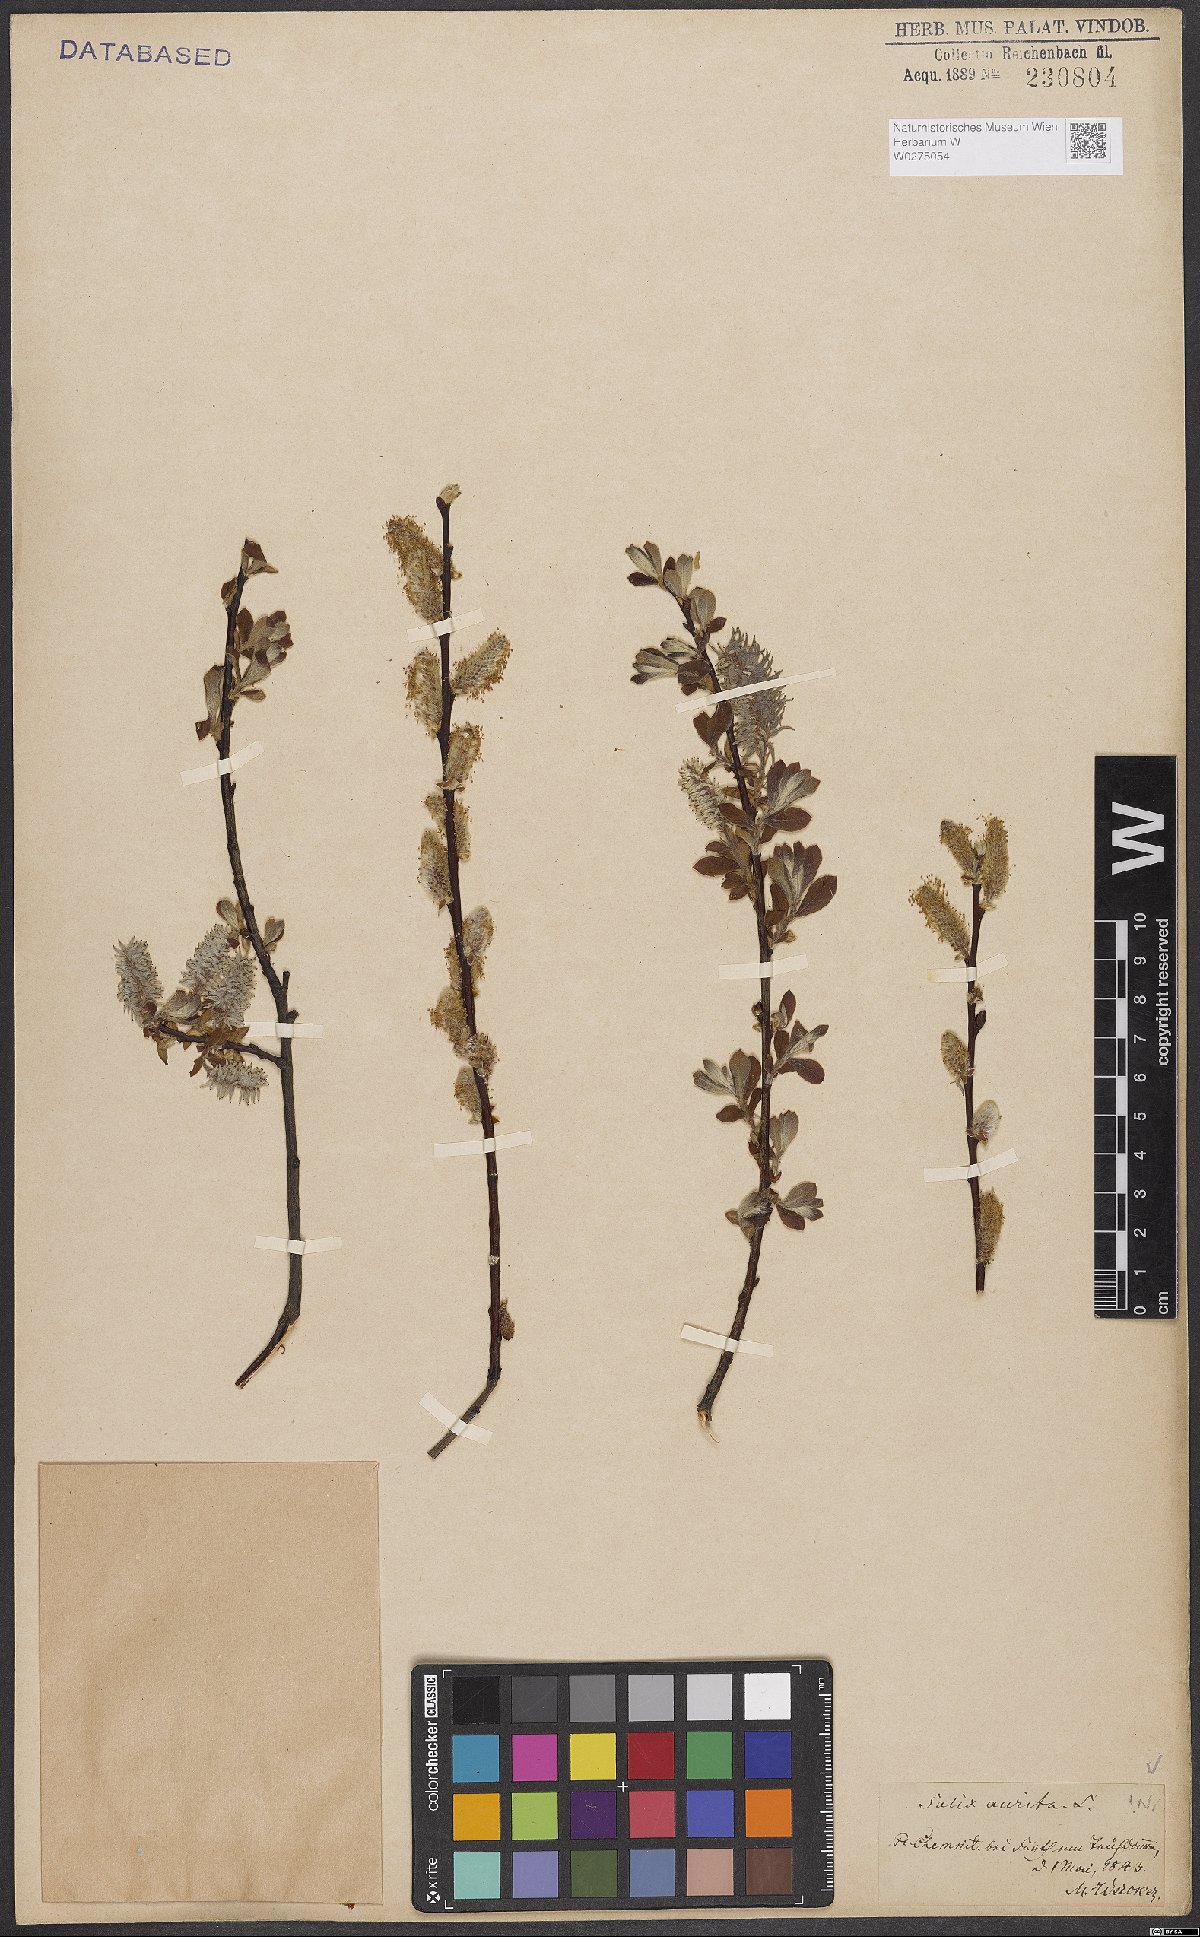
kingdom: Plantae
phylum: Tracheophyta
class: Magnoliopsida
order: Malpighiales
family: Salicaceae
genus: Salix
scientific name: Salix aurita
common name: Eared willow
